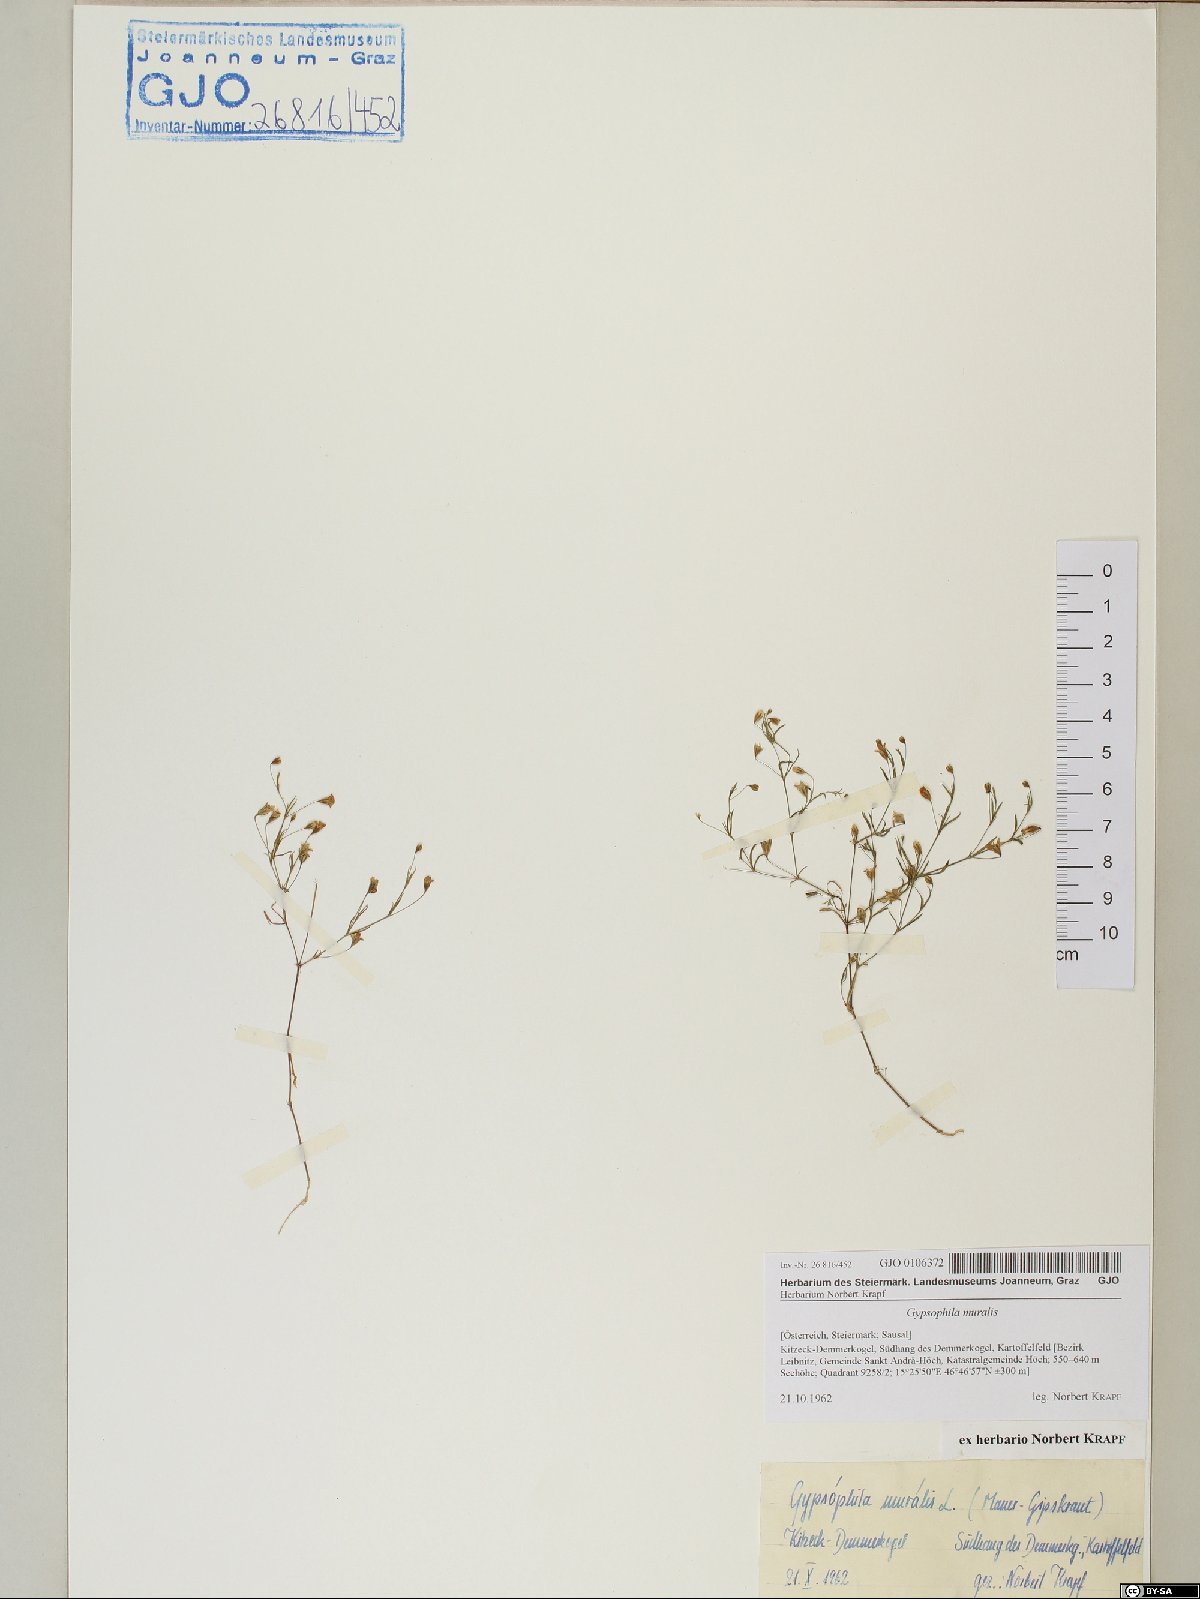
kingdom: Plantae
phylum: Tracheophyta
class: Magnoliopsida
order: Caryophyllales
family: Caryophyllaceae
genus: Psammophiliella
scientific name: Psammophiliella muralis
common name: Cushion baby's-breath
